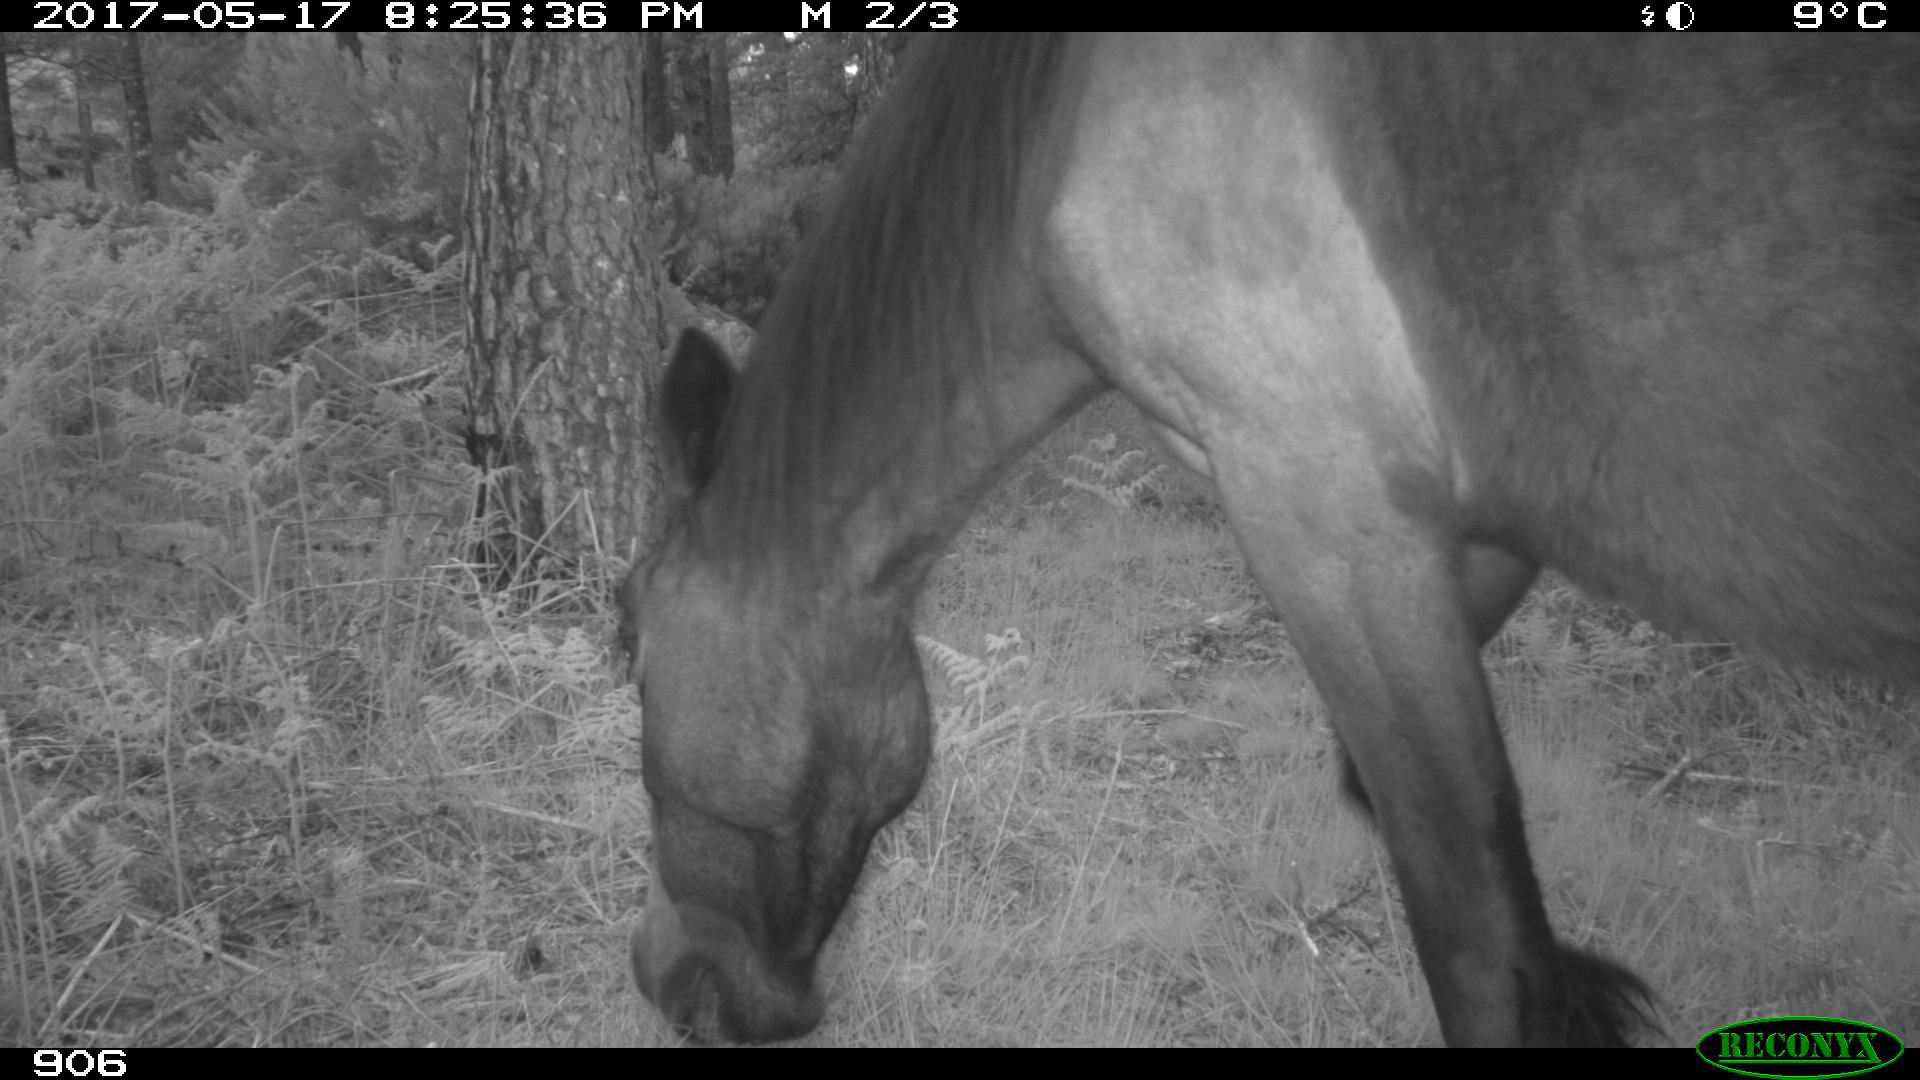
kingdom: Animalia
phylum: Chordata
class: Mammalia
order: Perissodactyla
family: Equidae
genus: Equus
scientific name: Equus caballus
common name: Horse
